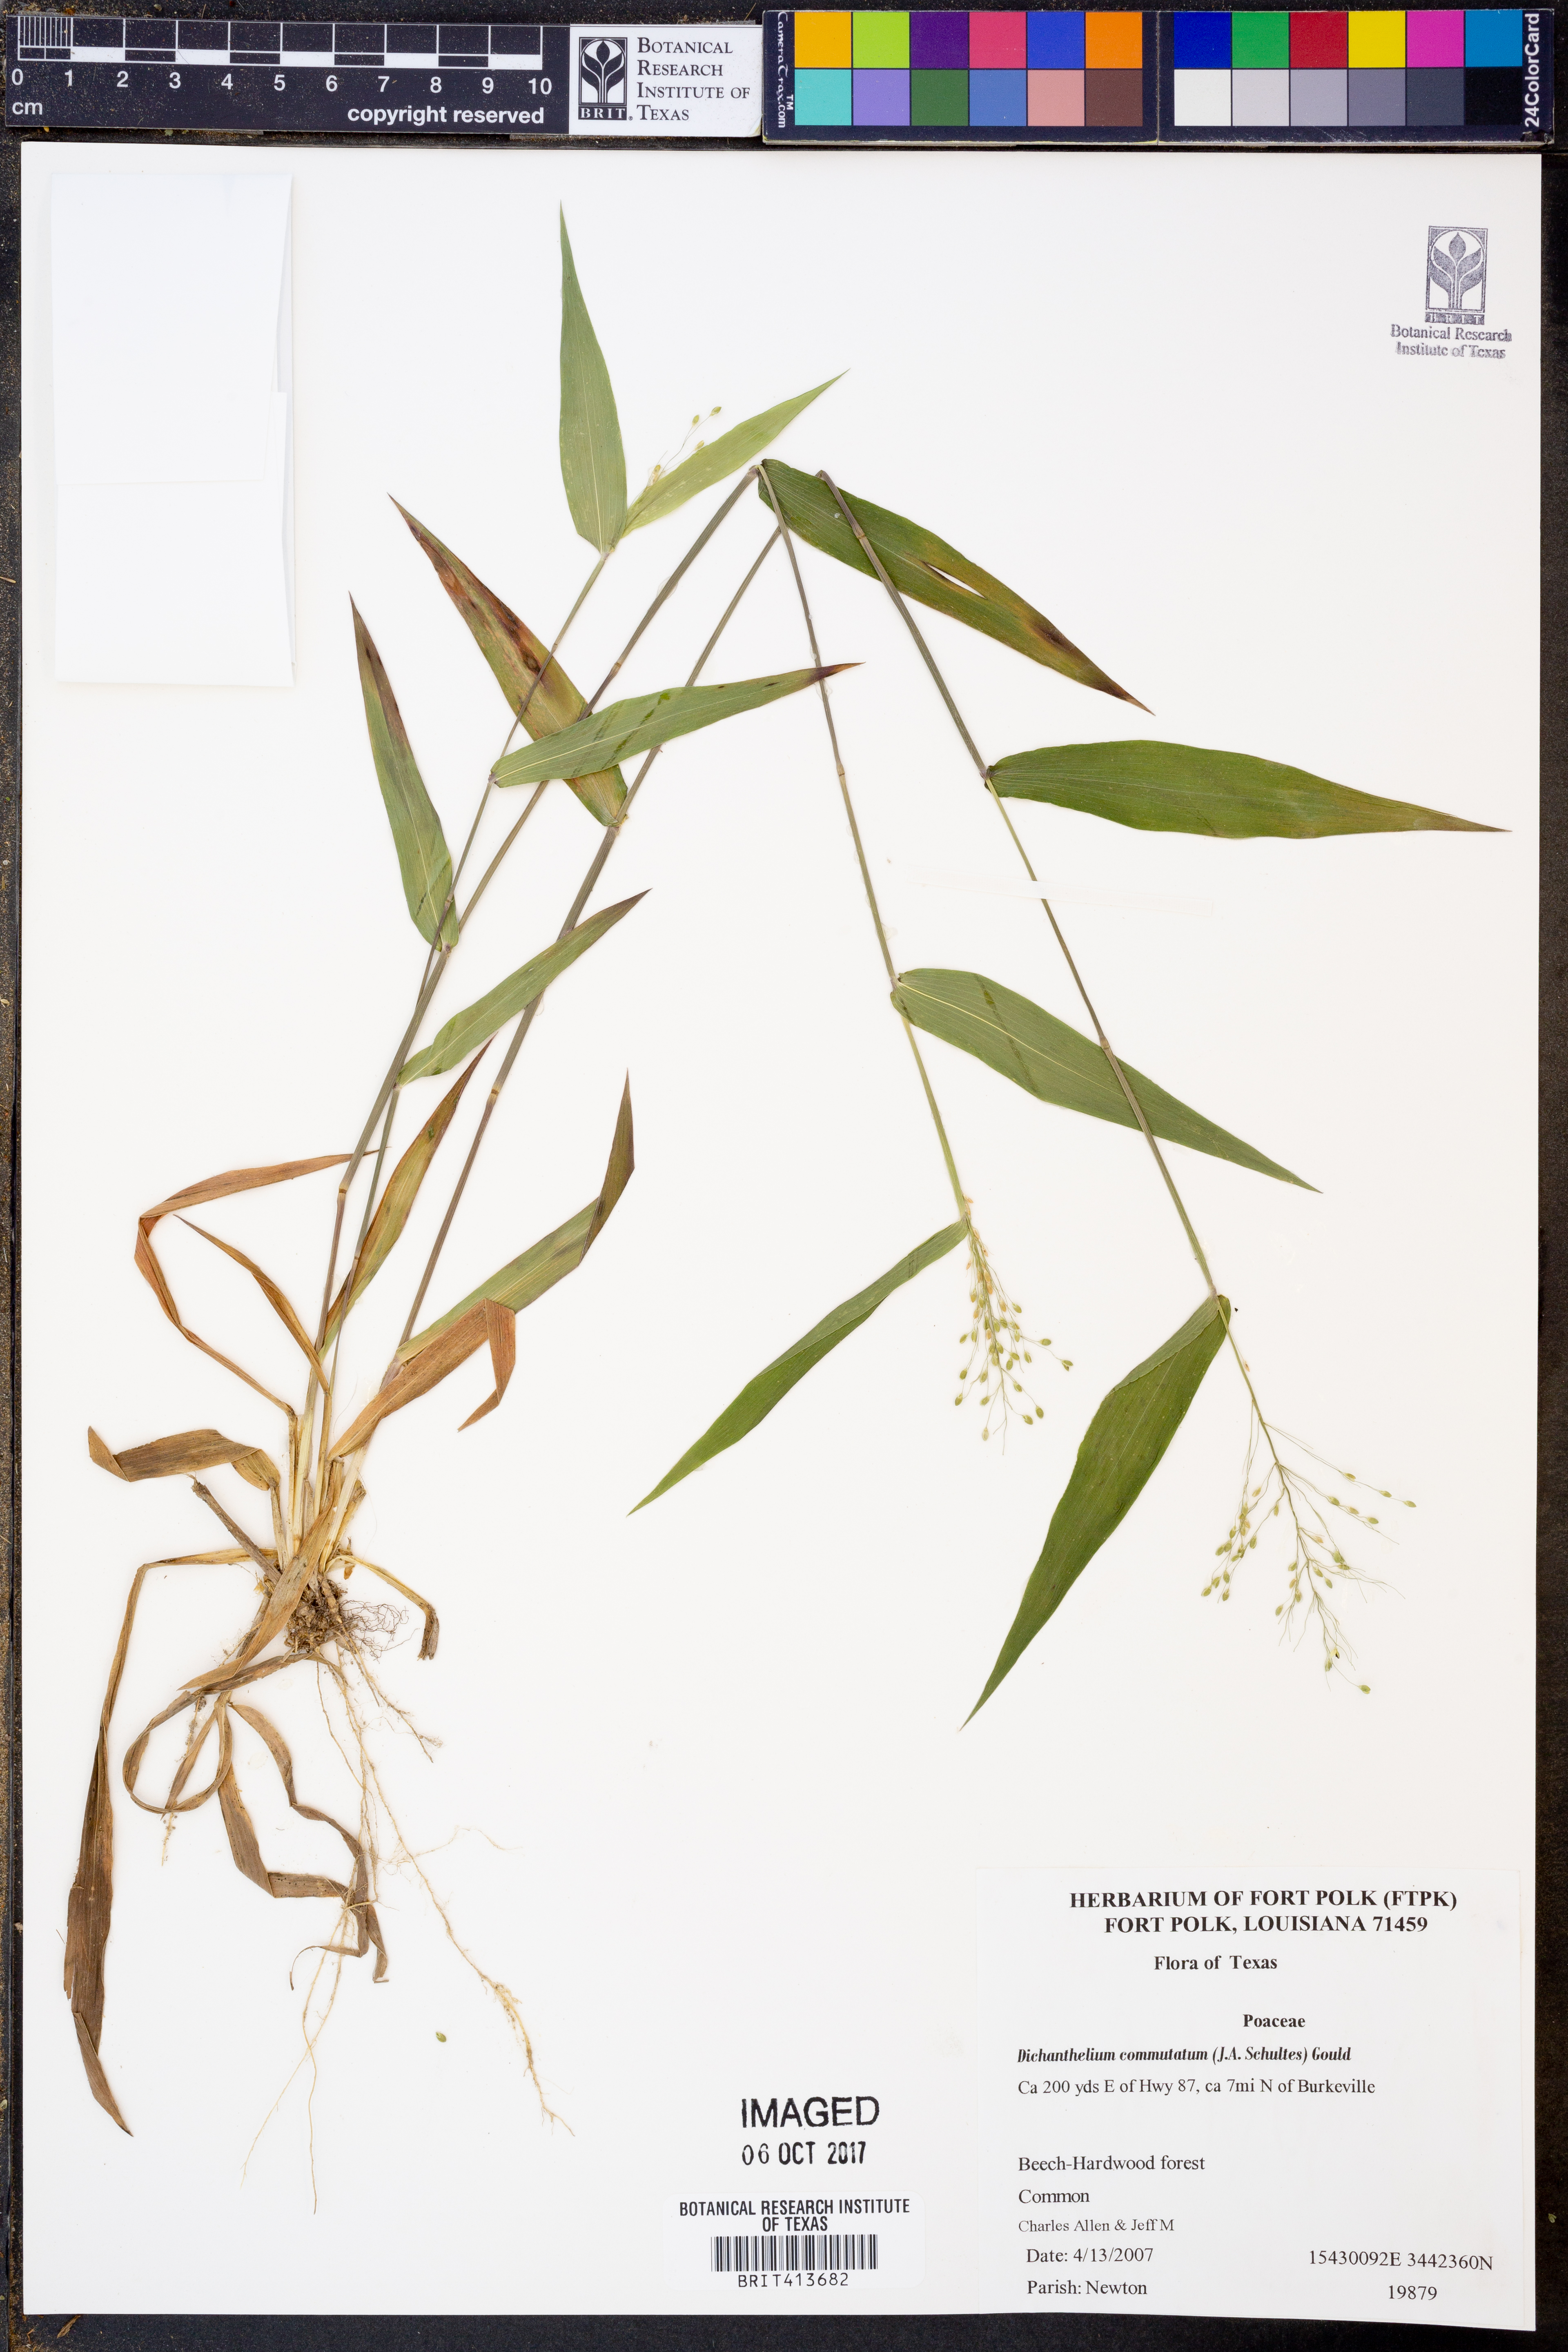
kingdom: Plantae
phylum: Tracheophyta
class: Liliopsida
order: Poales
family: Poaceae
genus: Dichanthelium
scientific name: Dichanthelium commutatum
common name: Variable witchgrass
